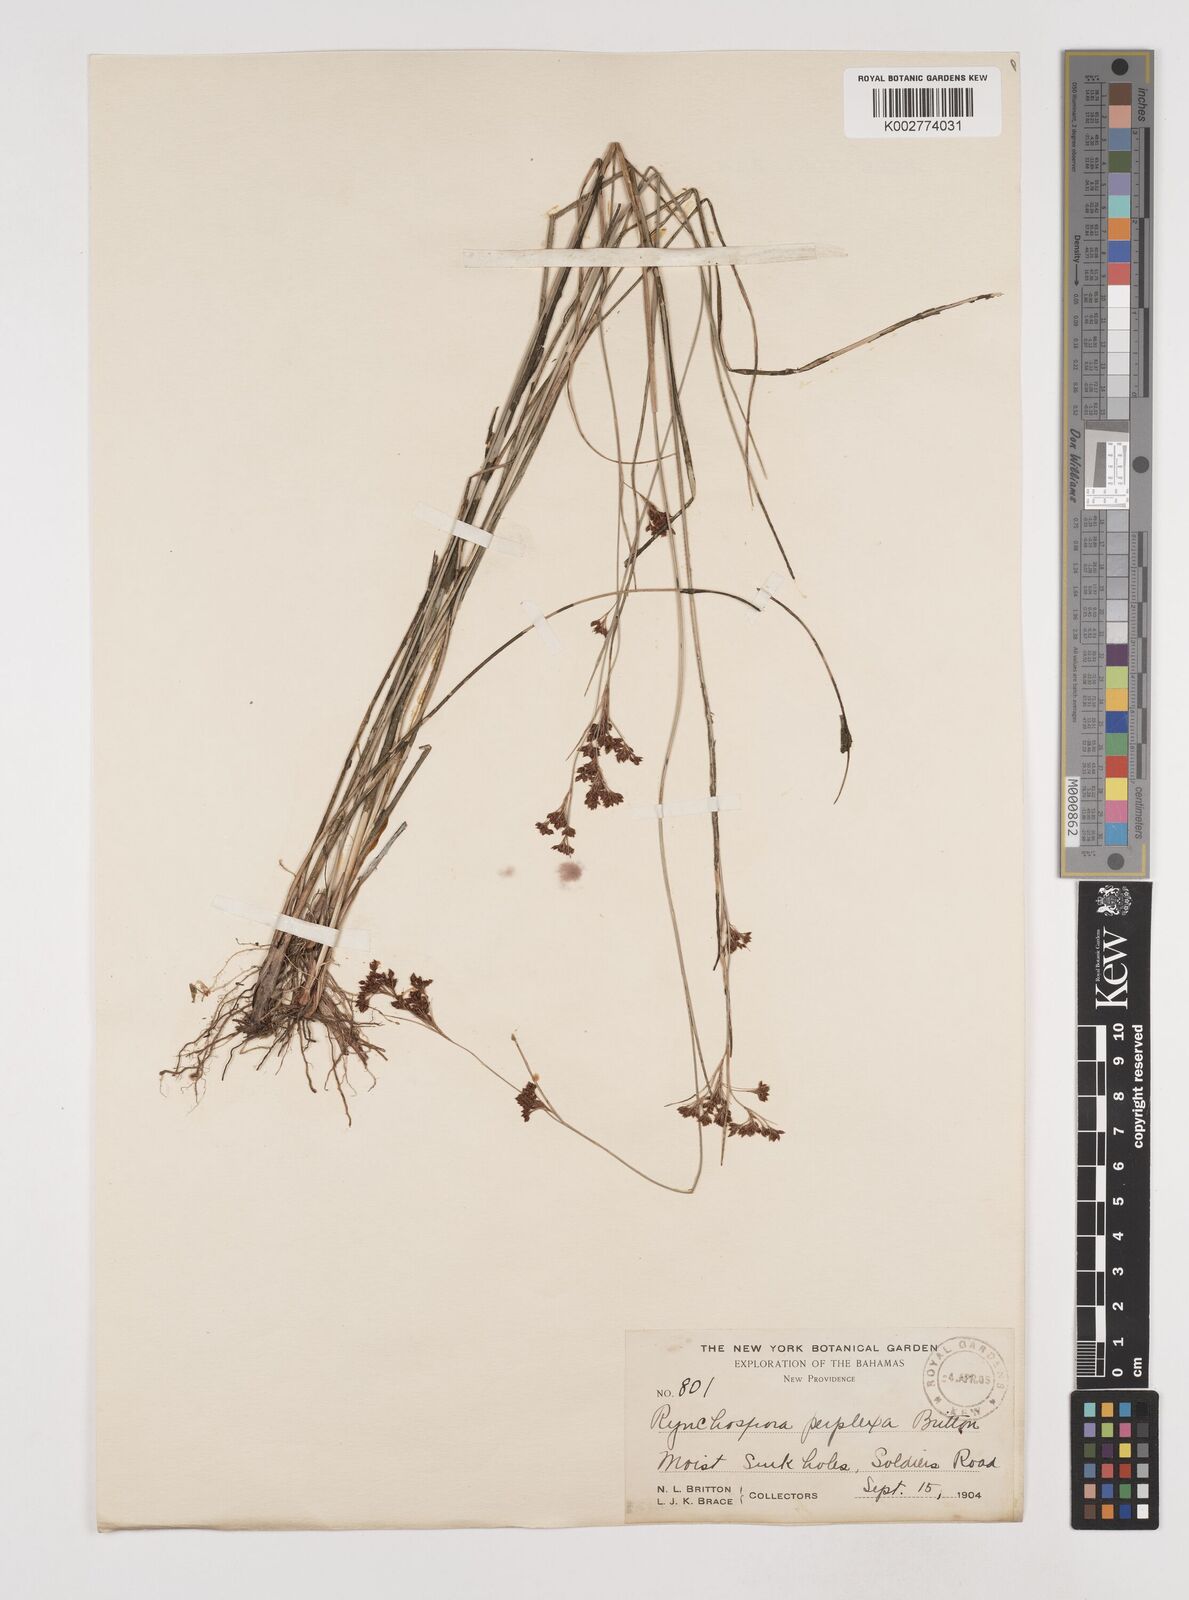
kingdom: Plantae
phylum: Tracheophyta
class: Liliopsida
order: Poales
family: Cyperaceae
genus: Rhynchospora
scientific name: Rhynchospora perplexa
